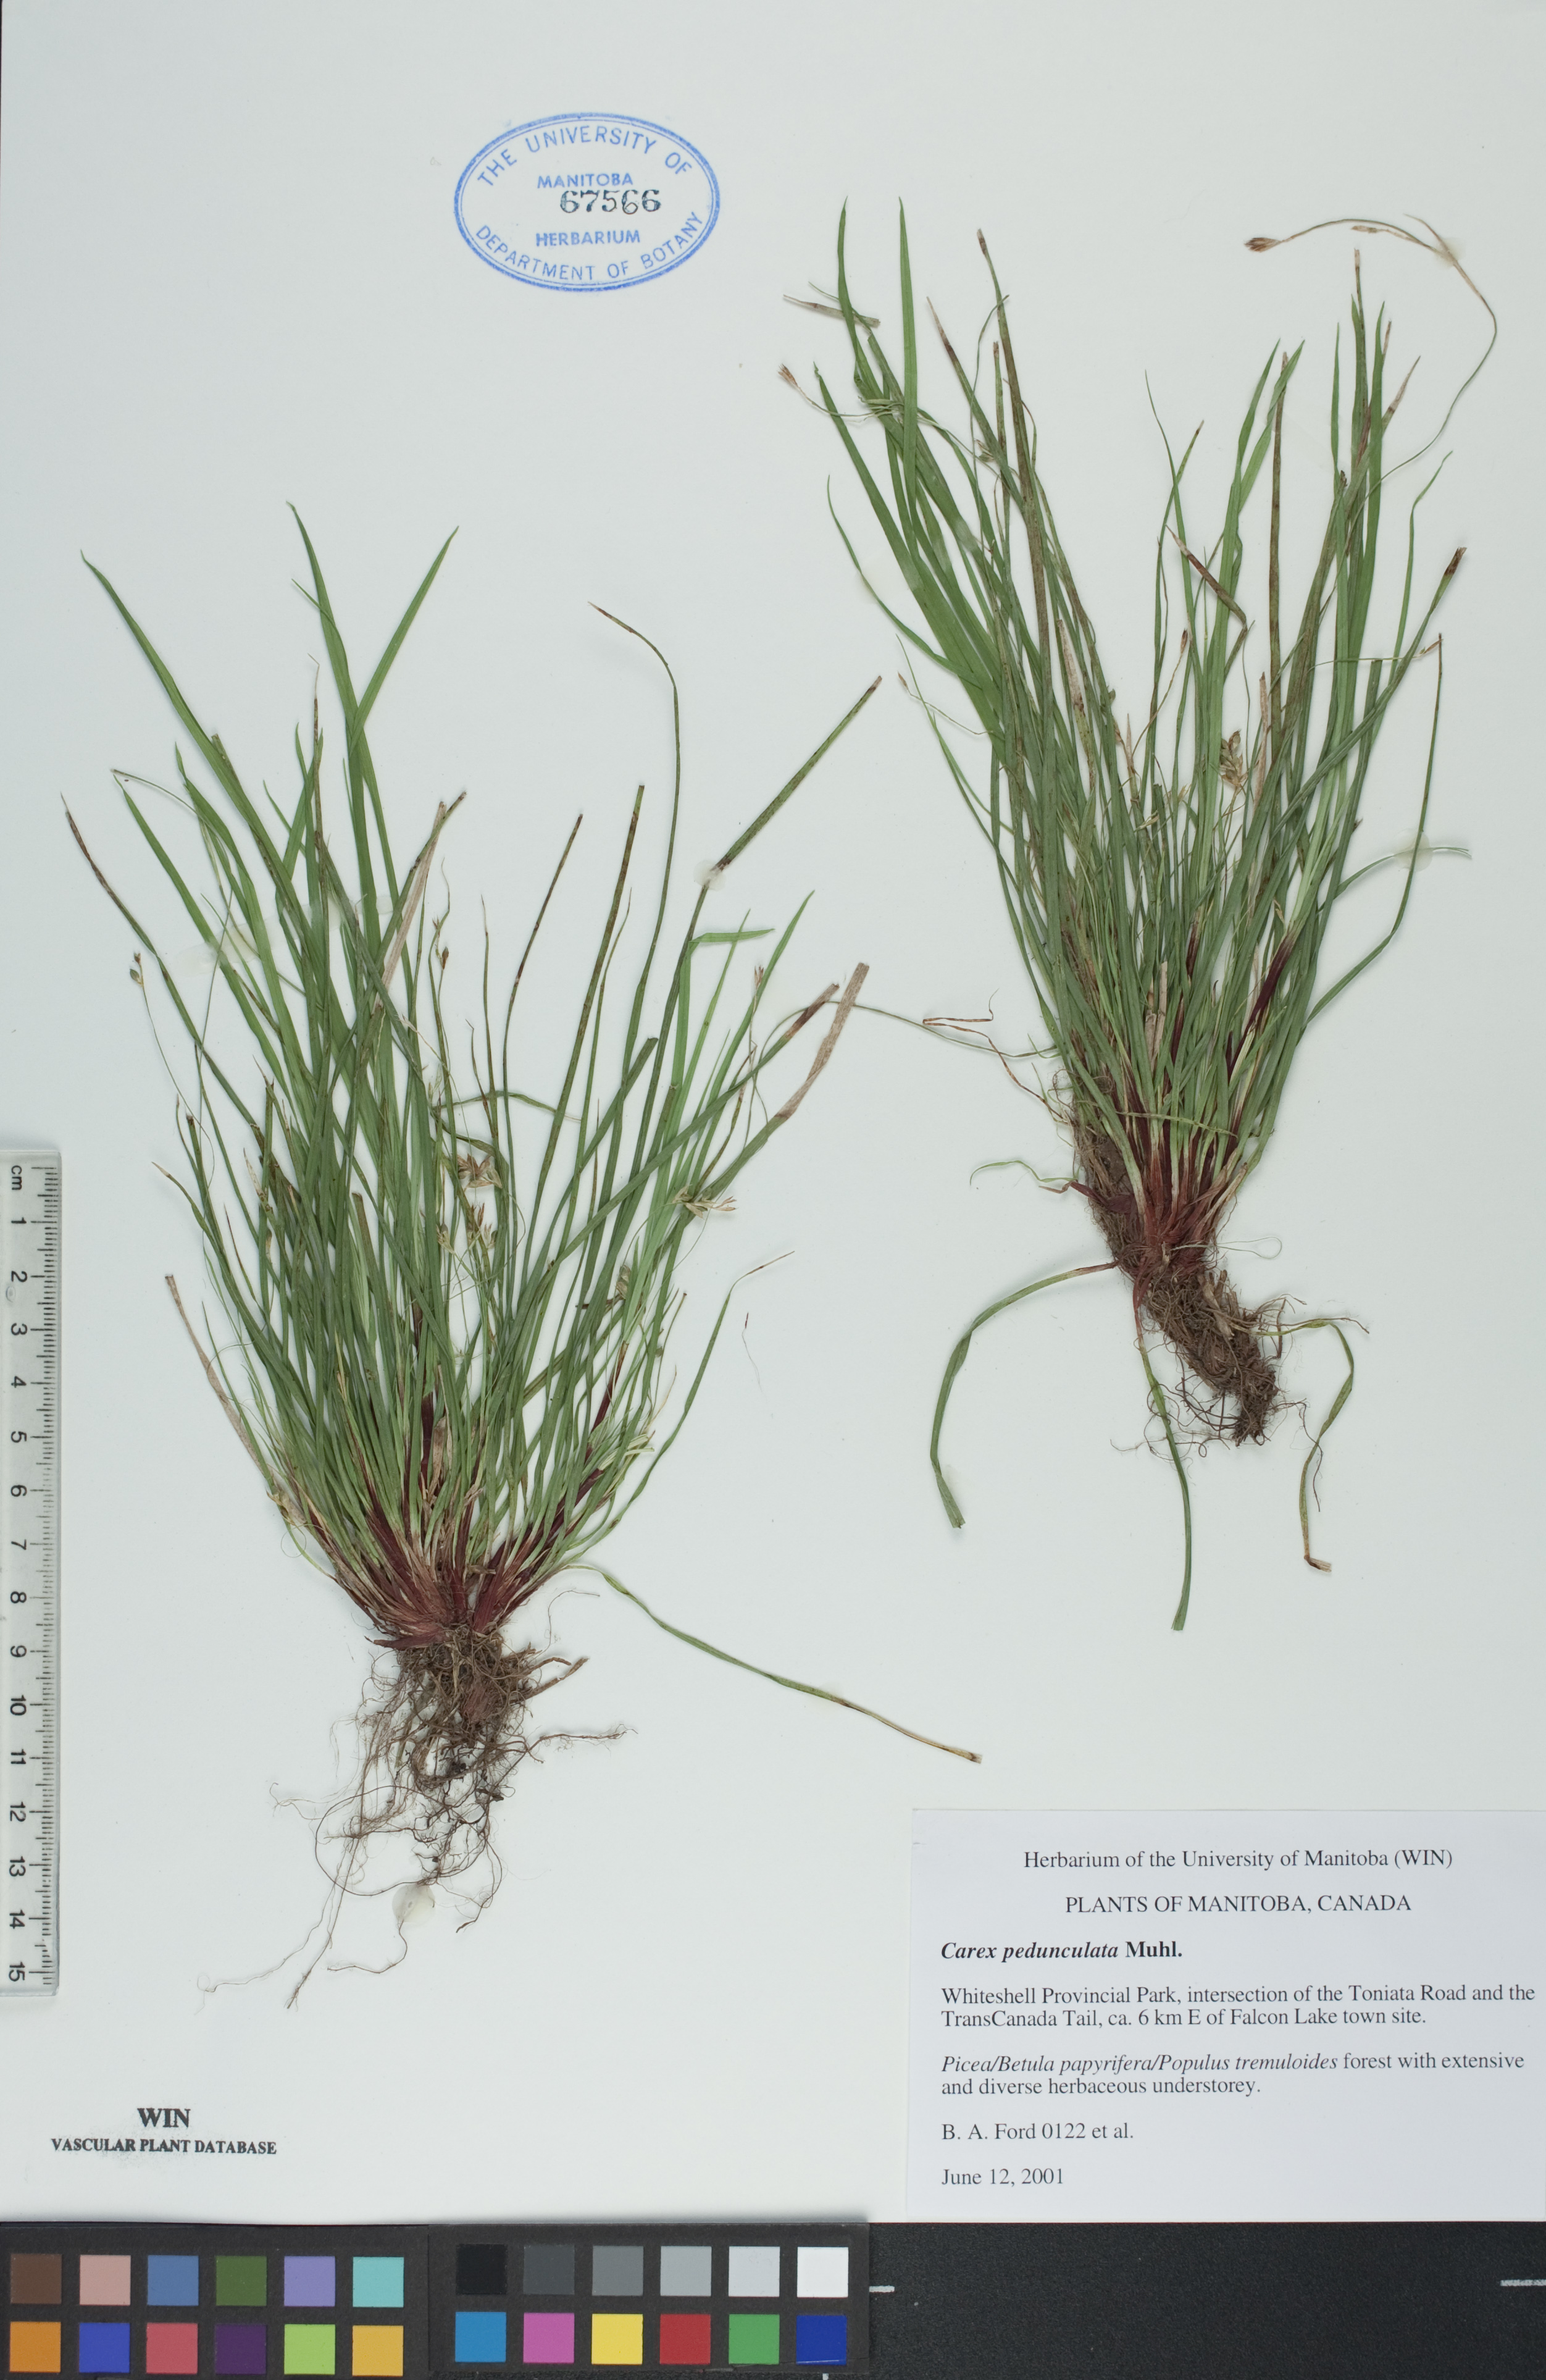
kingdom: Plantae
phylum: Tracheophyta
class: Liliopsida
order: Poales
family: Cyperaceae
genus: Carex
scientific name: Carex pedunculata
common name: Pedunculate sedge
